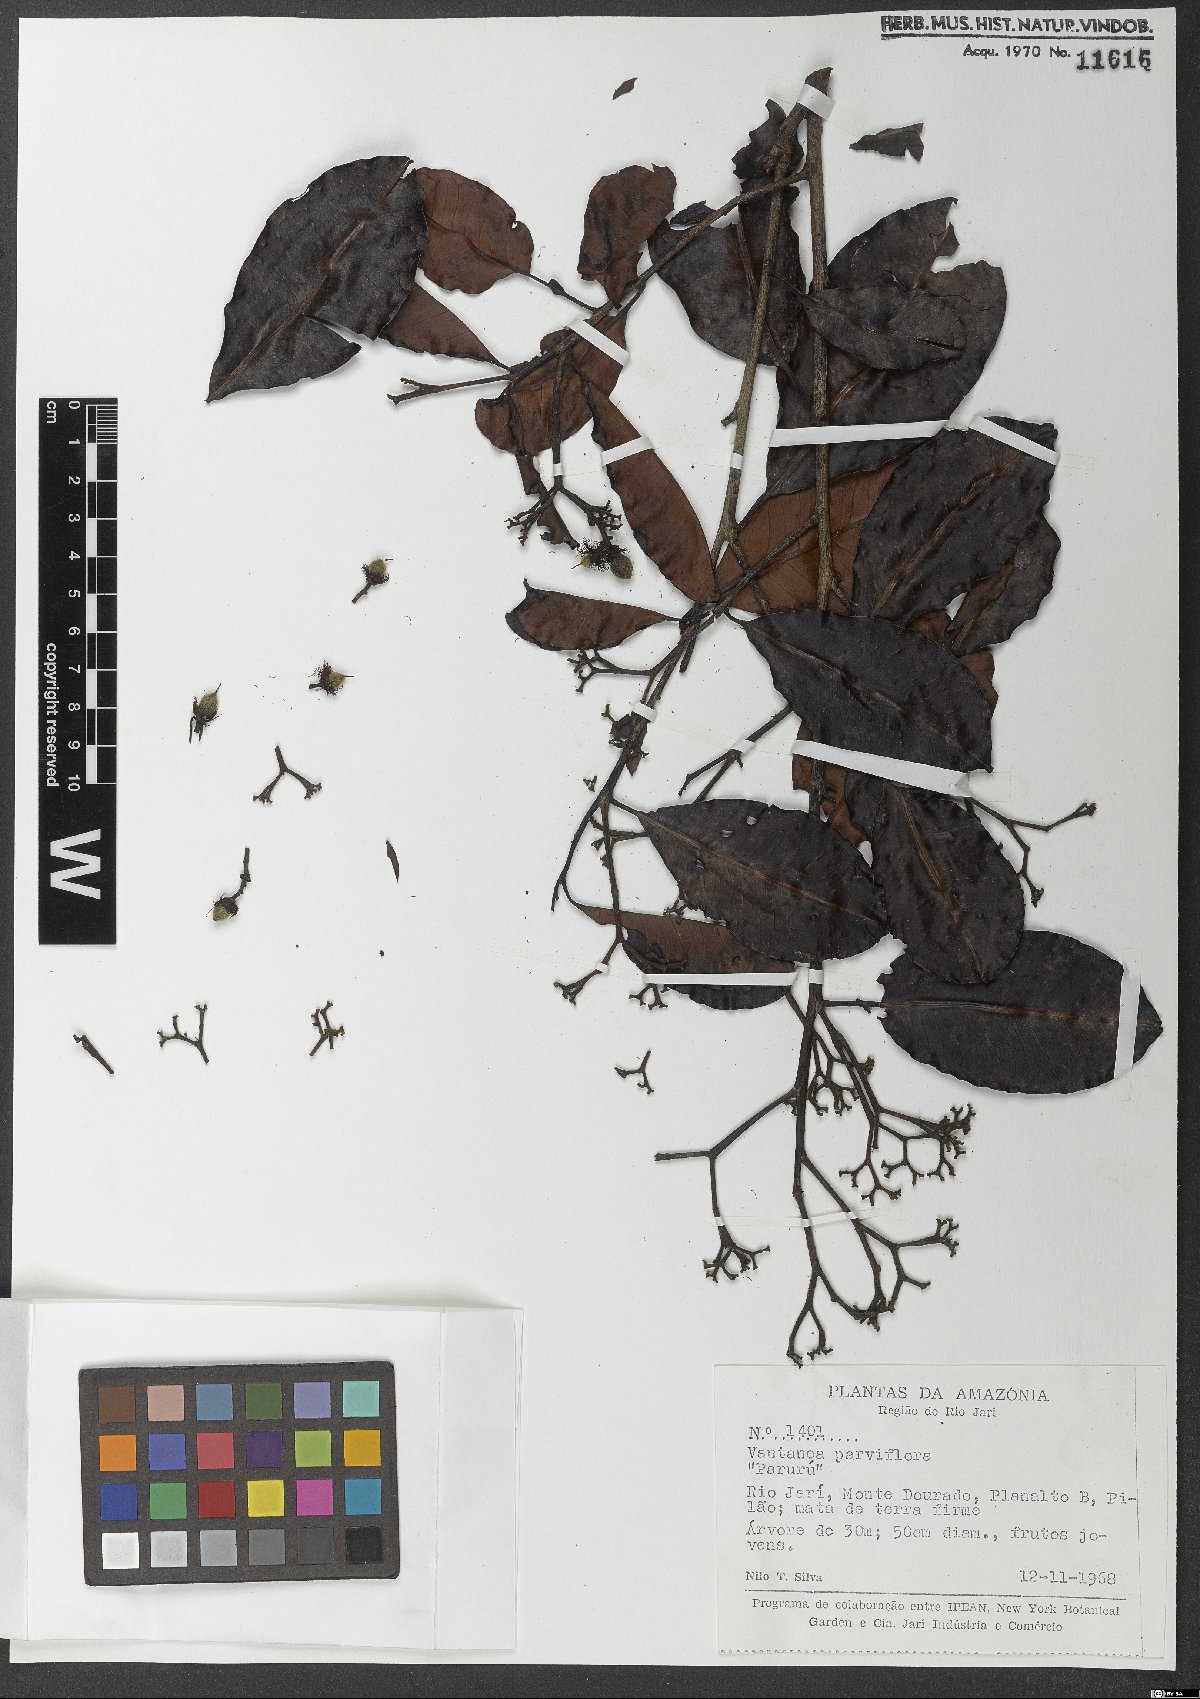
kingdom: Plantae
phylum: Tracheophyta
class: Magnoliopsida
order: Malpighiales
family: Humiriaceae
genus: Vantanea
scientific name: Vantanea parviflora
